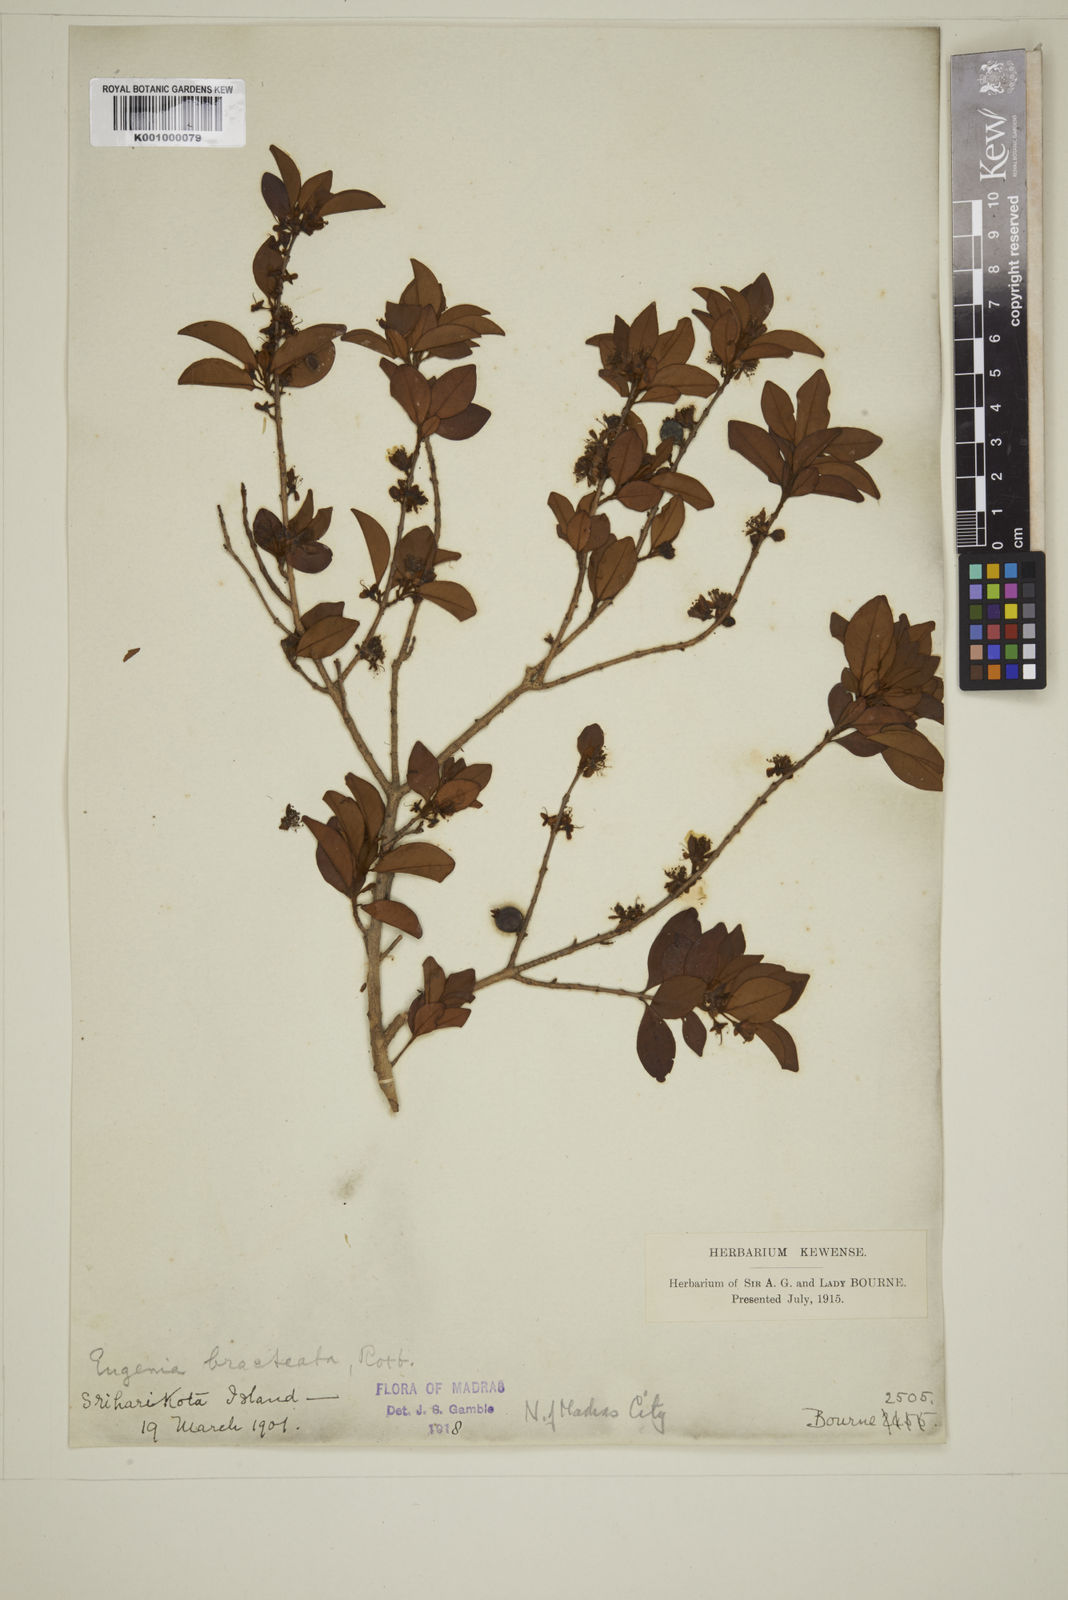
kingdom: Plantae
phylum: Tracheophyta
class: Magnoliopsida
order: Myrtales
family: Myrtaceae
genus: Myrcia
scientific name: Myrcia bracteata
